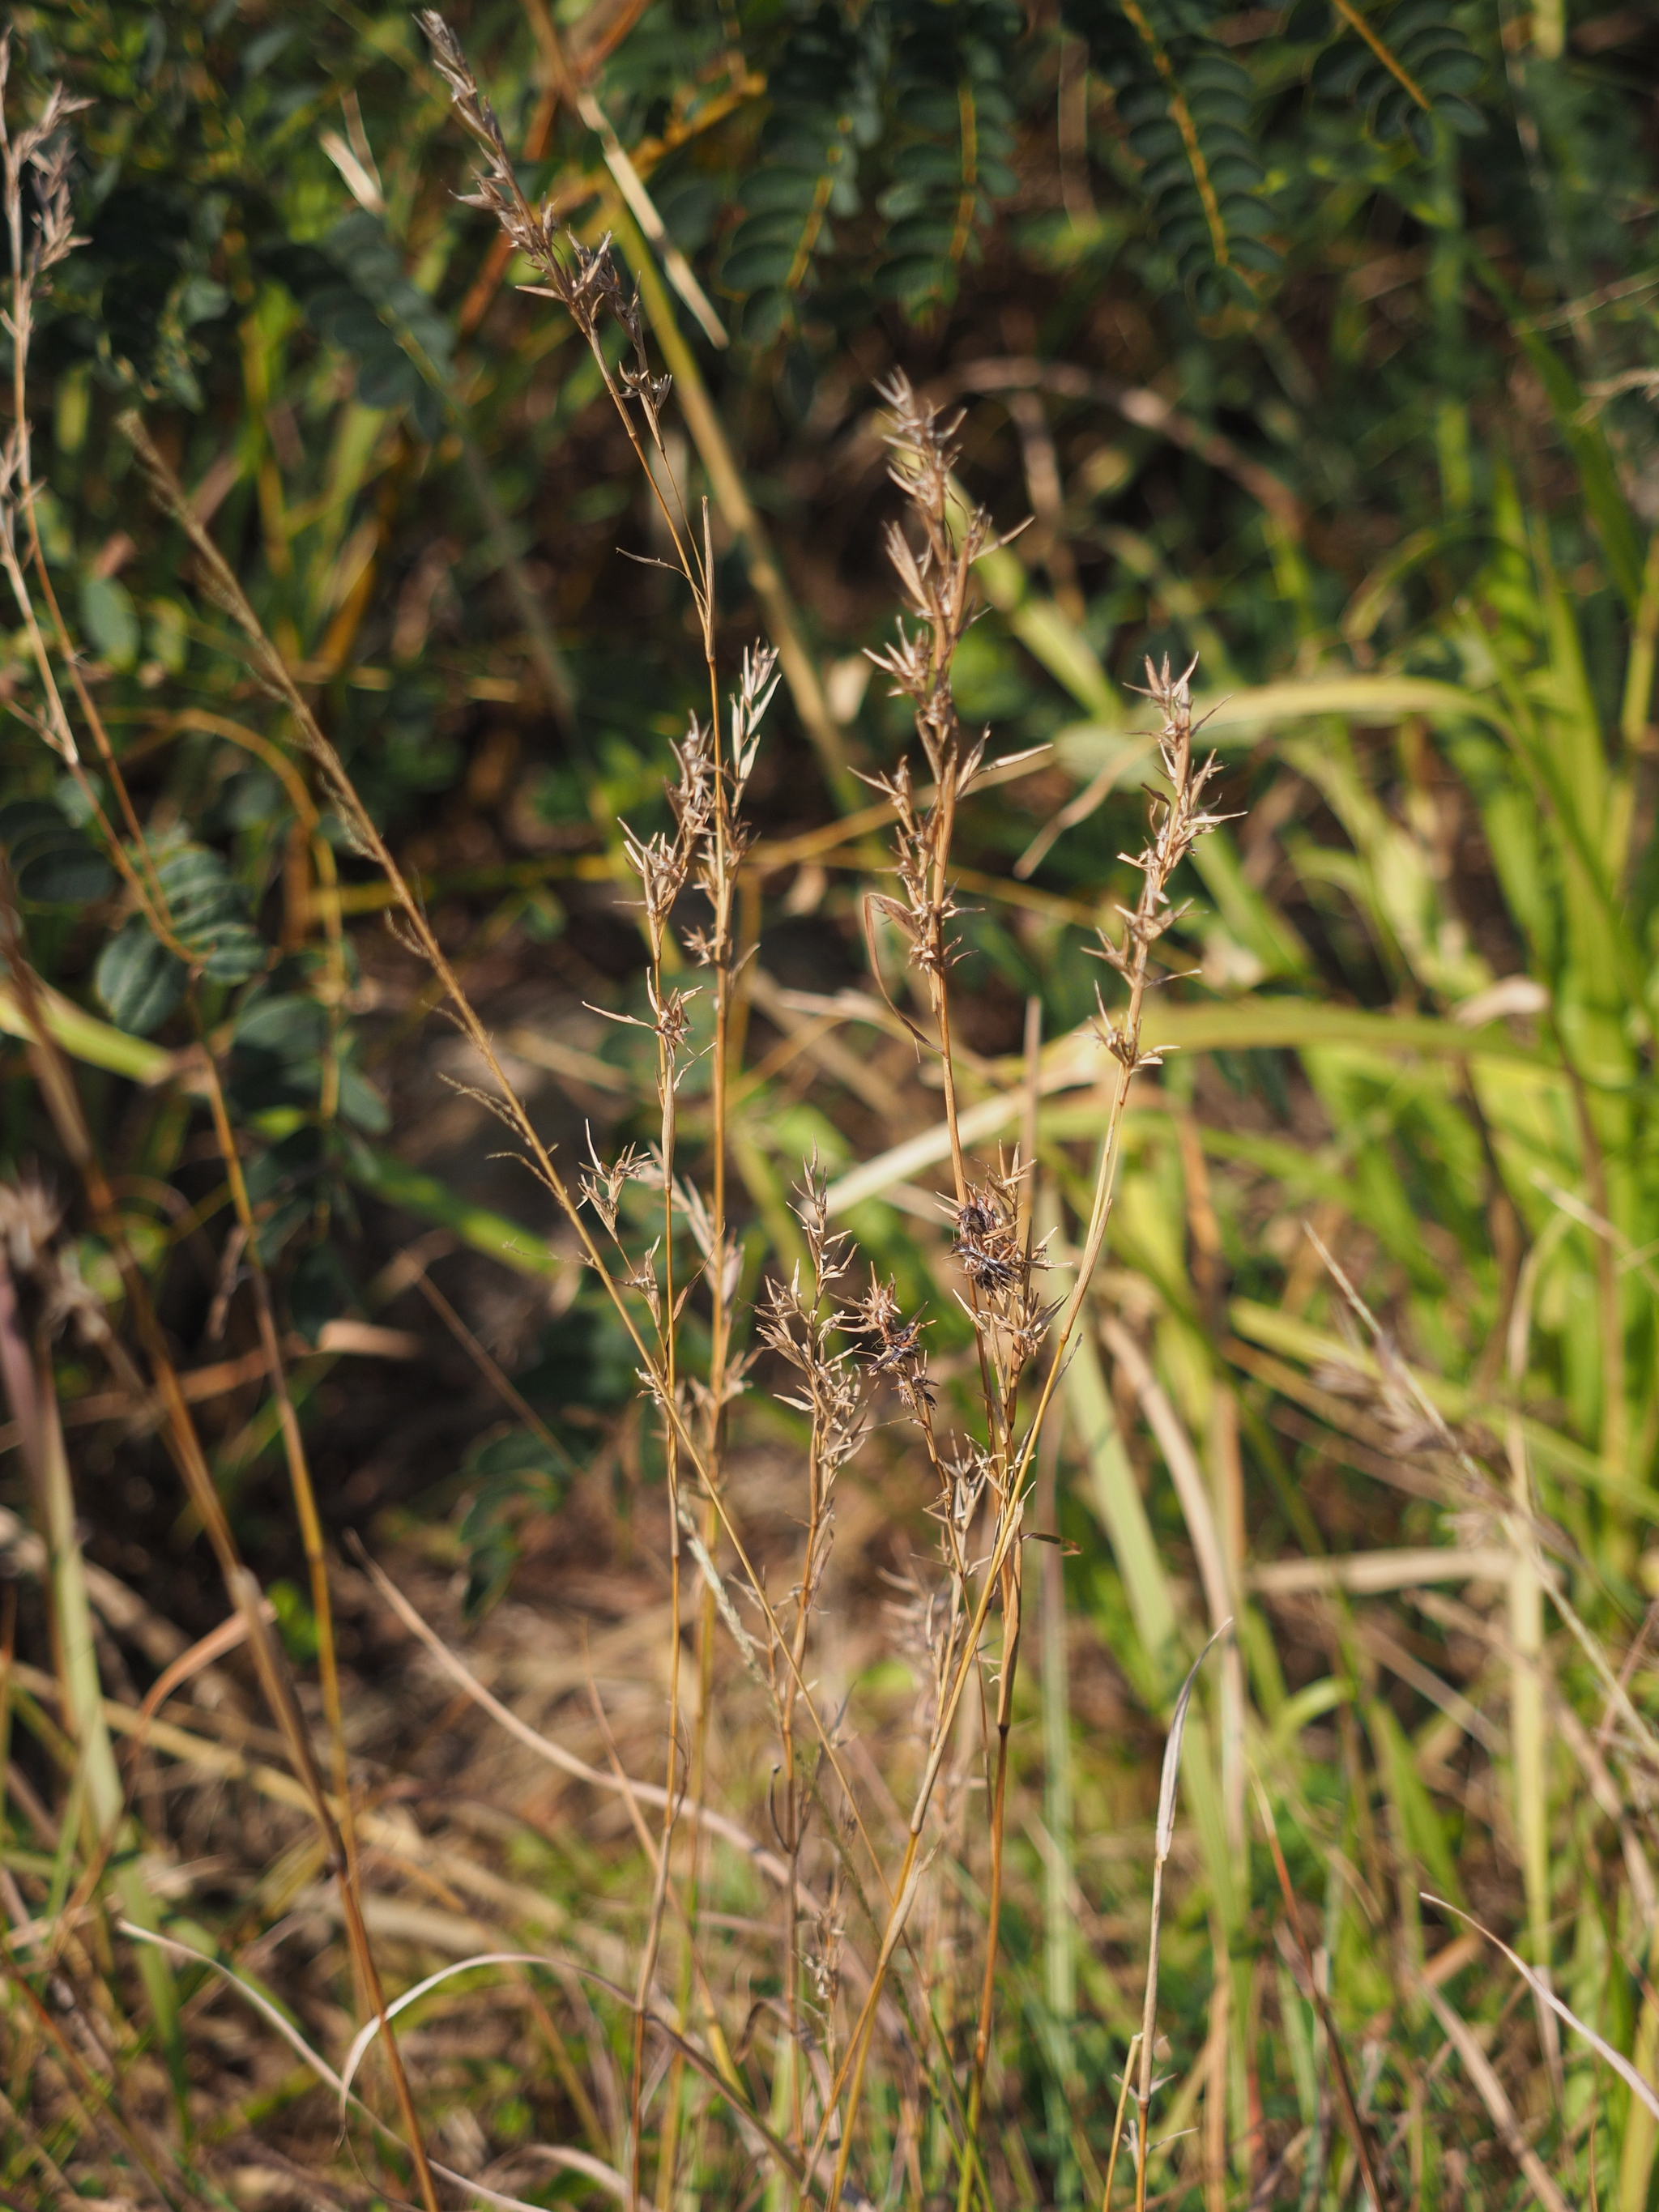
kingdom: Plantae
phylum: Tracheophyta
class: Liliopsida
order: Poales
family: Poaceae
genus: Cymbopogon
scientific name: Cymbopogon tortilis
